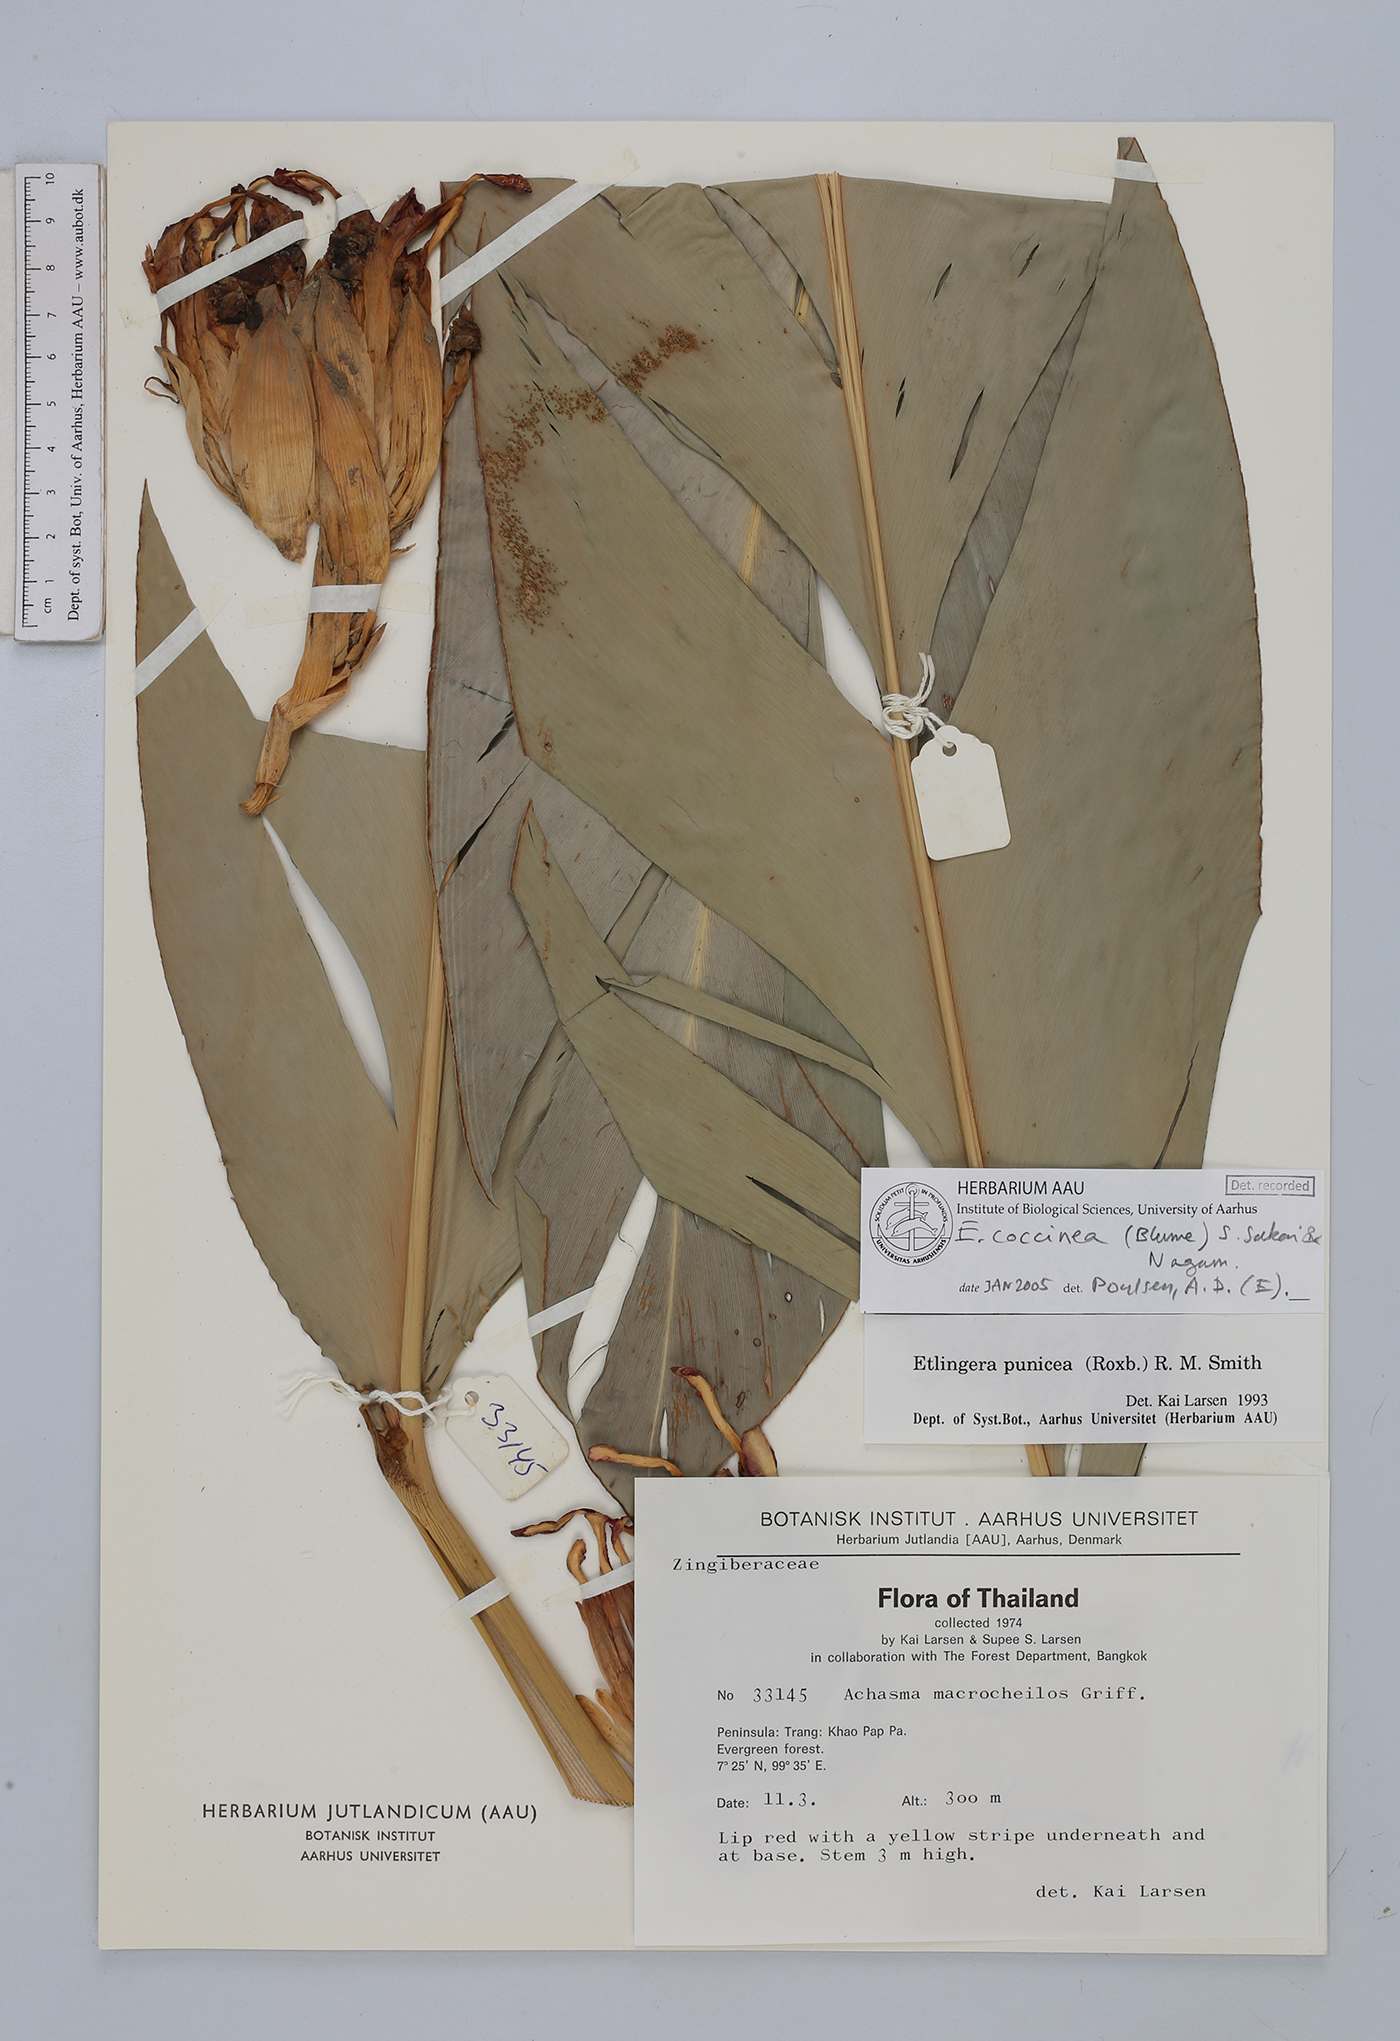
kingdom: Plantae
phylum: Tracheophyta
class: Liliopsida
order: Zingiberales
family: Zingiberaceae
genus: Etlingera
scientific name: Etlingera coccinea
